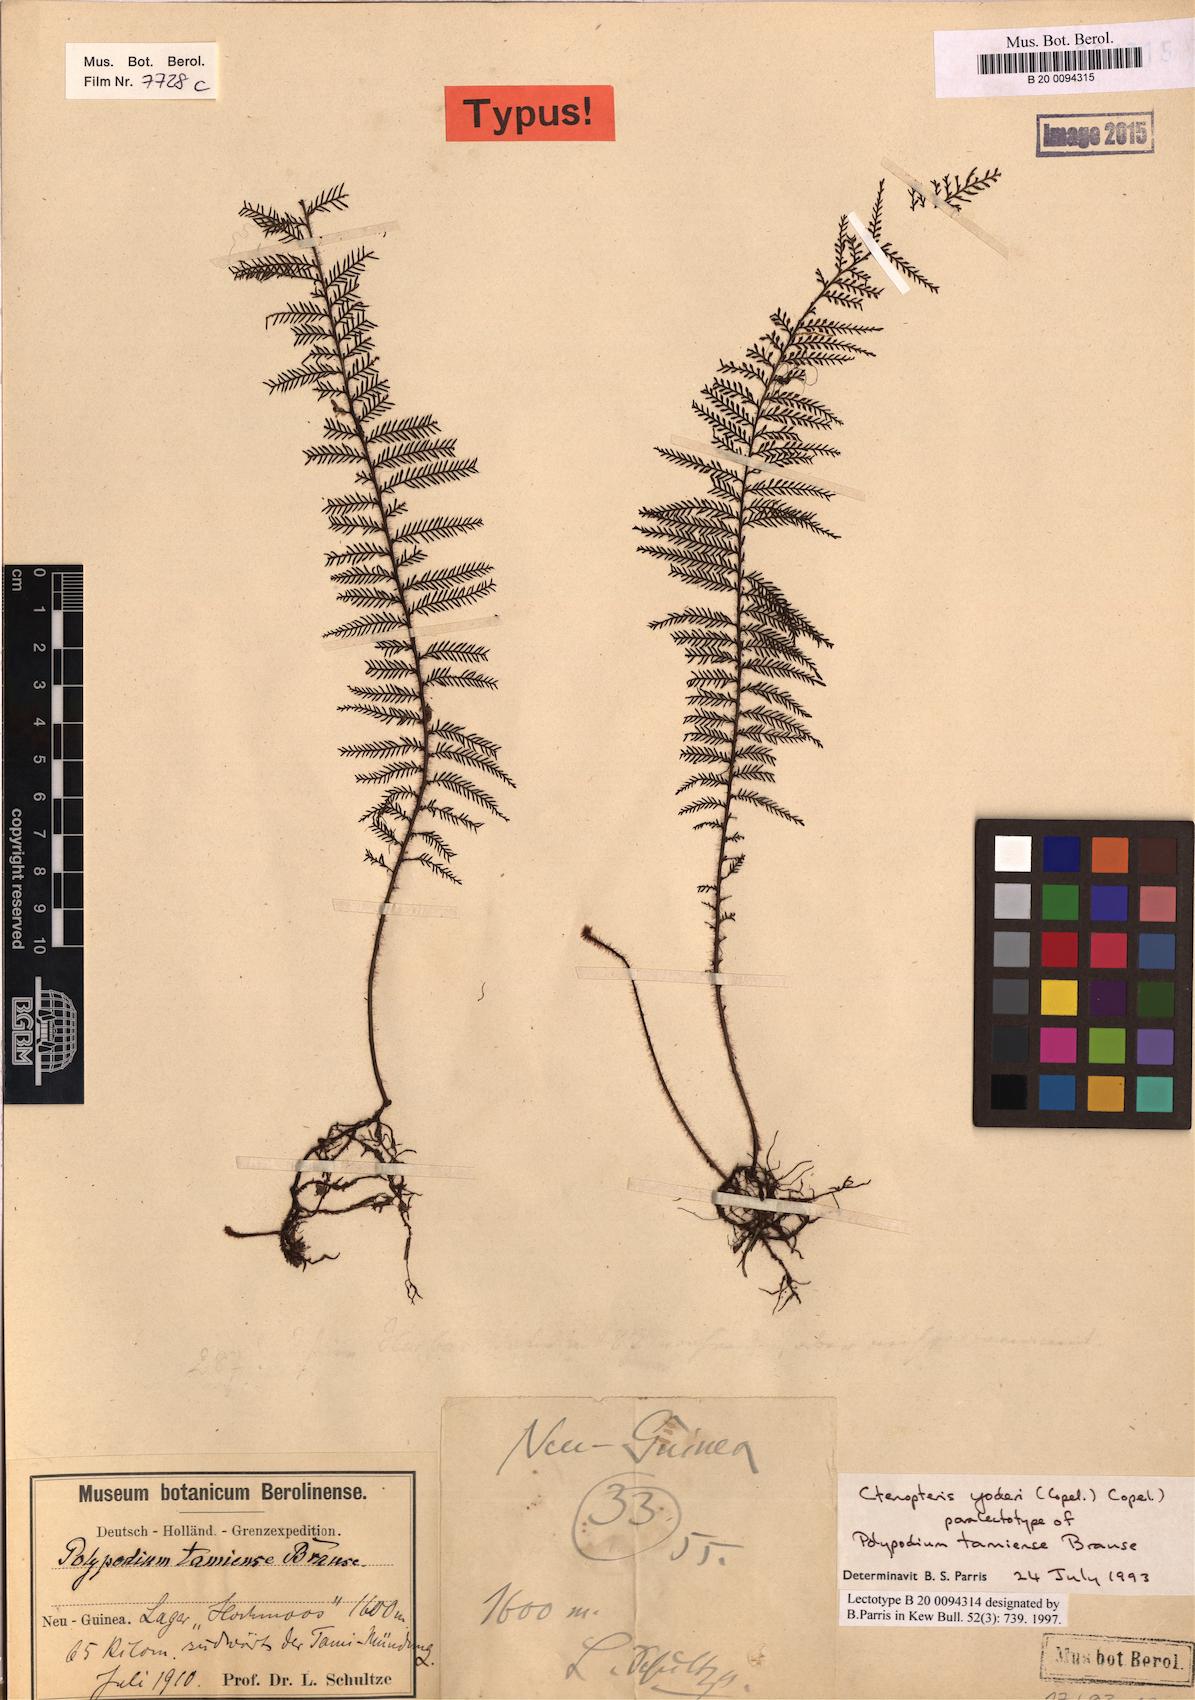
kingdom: Plantae
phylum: Tracheophyta
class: Polypodiopsida
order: Polypodiales
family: Polypodiaceae
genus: Oreogrammitis
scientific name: Oreogrammitis yoderi
